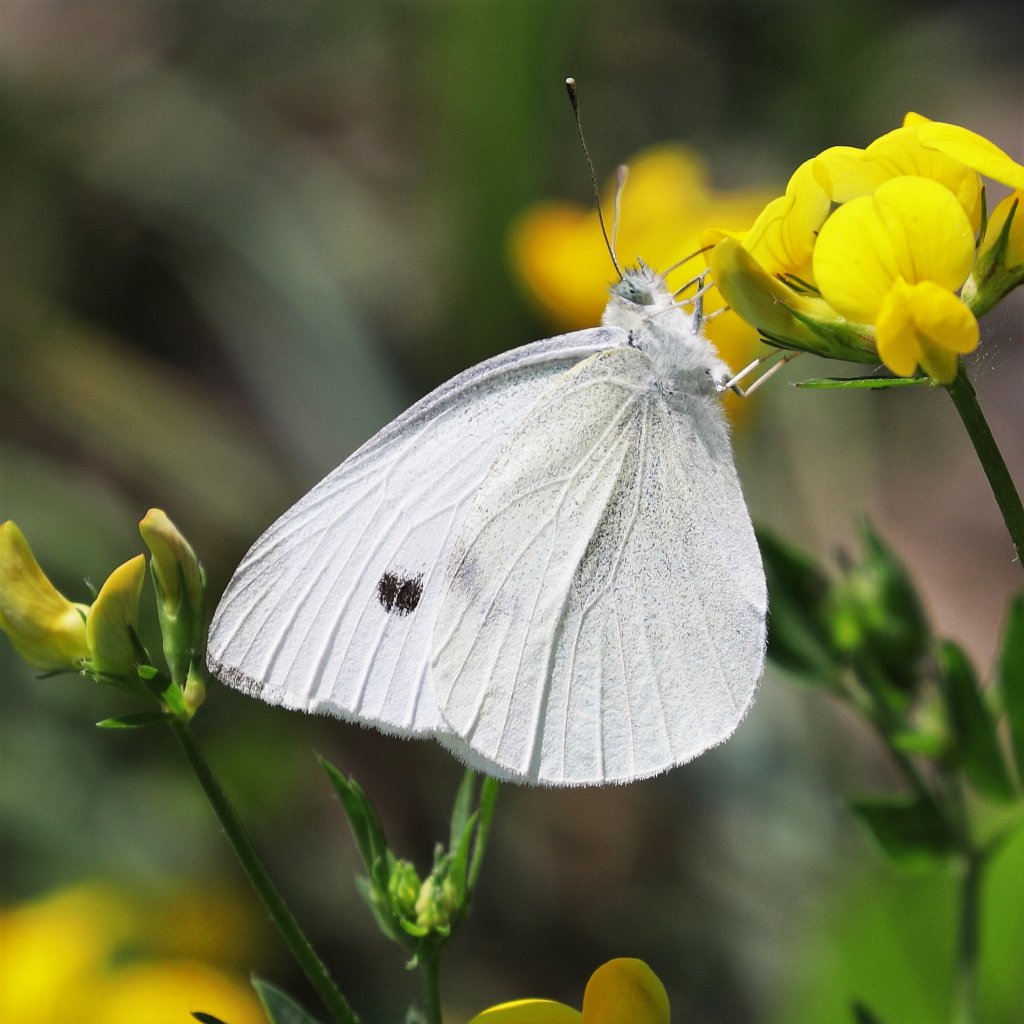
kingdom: Animalia
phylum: Arthropoda
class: Insecta
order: Lepidoptera
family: Pieridae
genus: Pieris
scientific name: Pieris rapae
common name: Cabbage White
